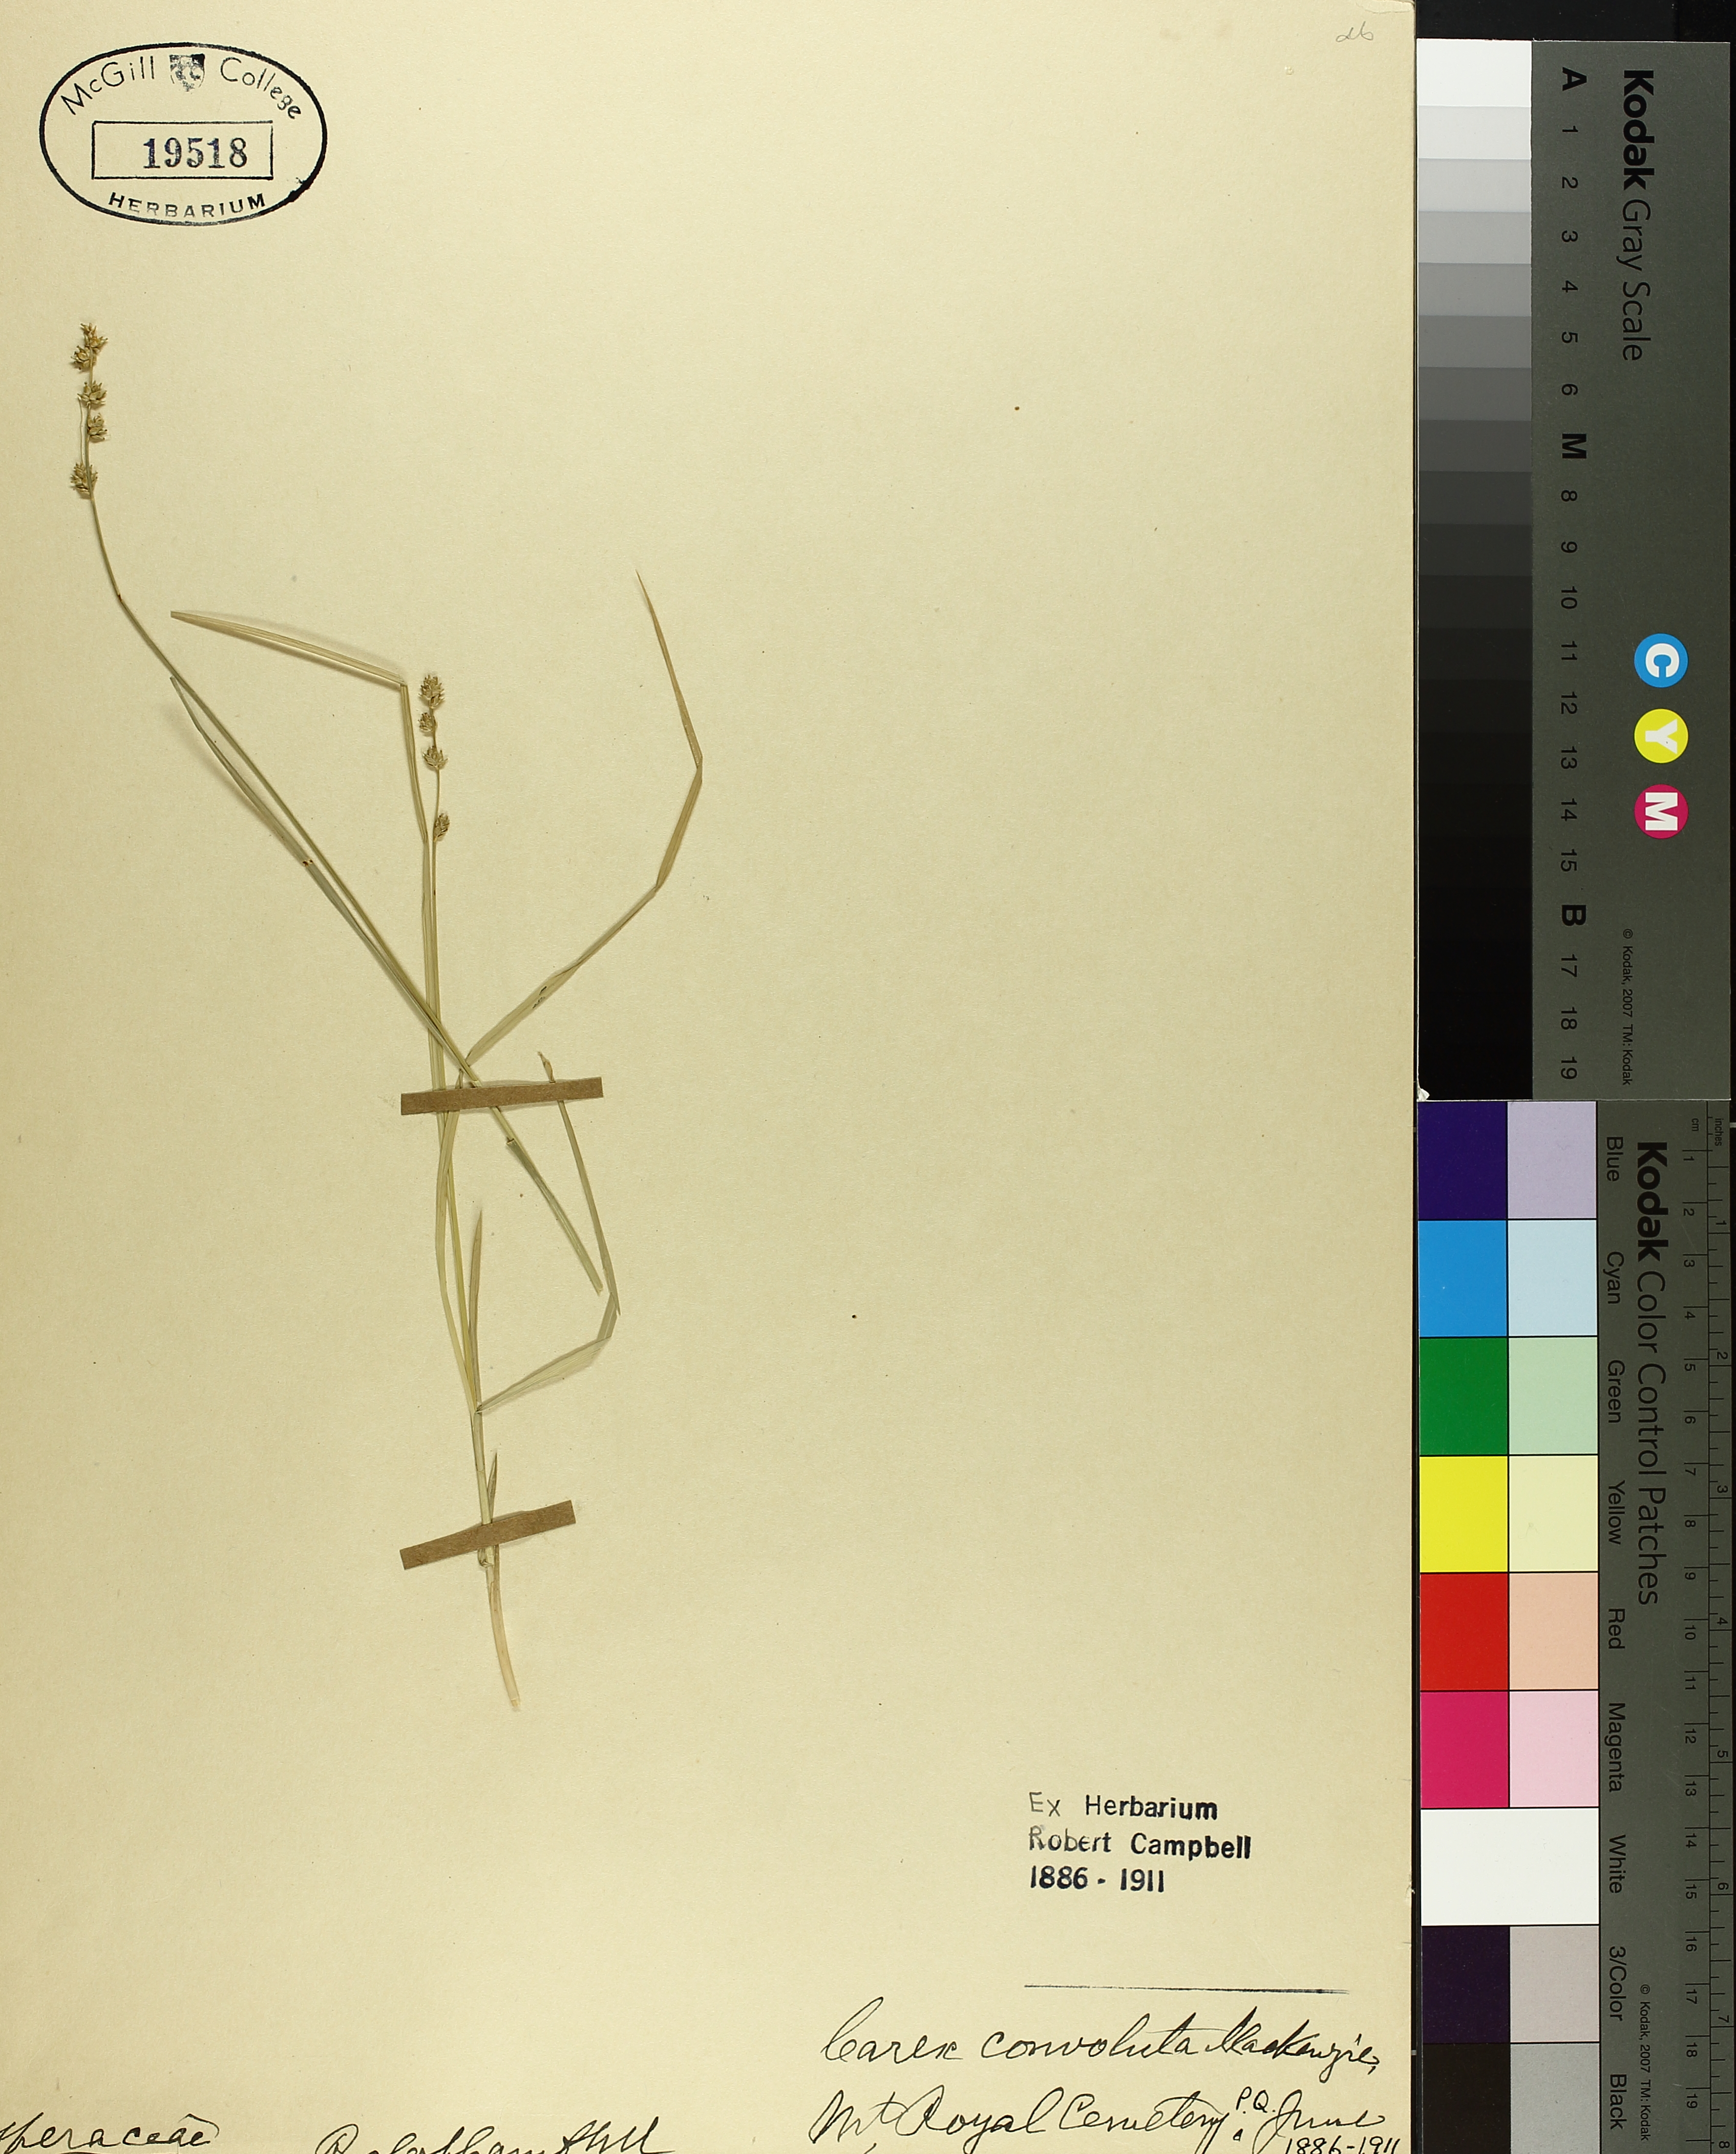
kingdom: Plantae
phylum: Tracheophyta
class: Liliopsida
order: Poales
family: Cyperaceae
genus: Carex
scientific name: Carex rosea
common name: Curly-styled wood sedge
